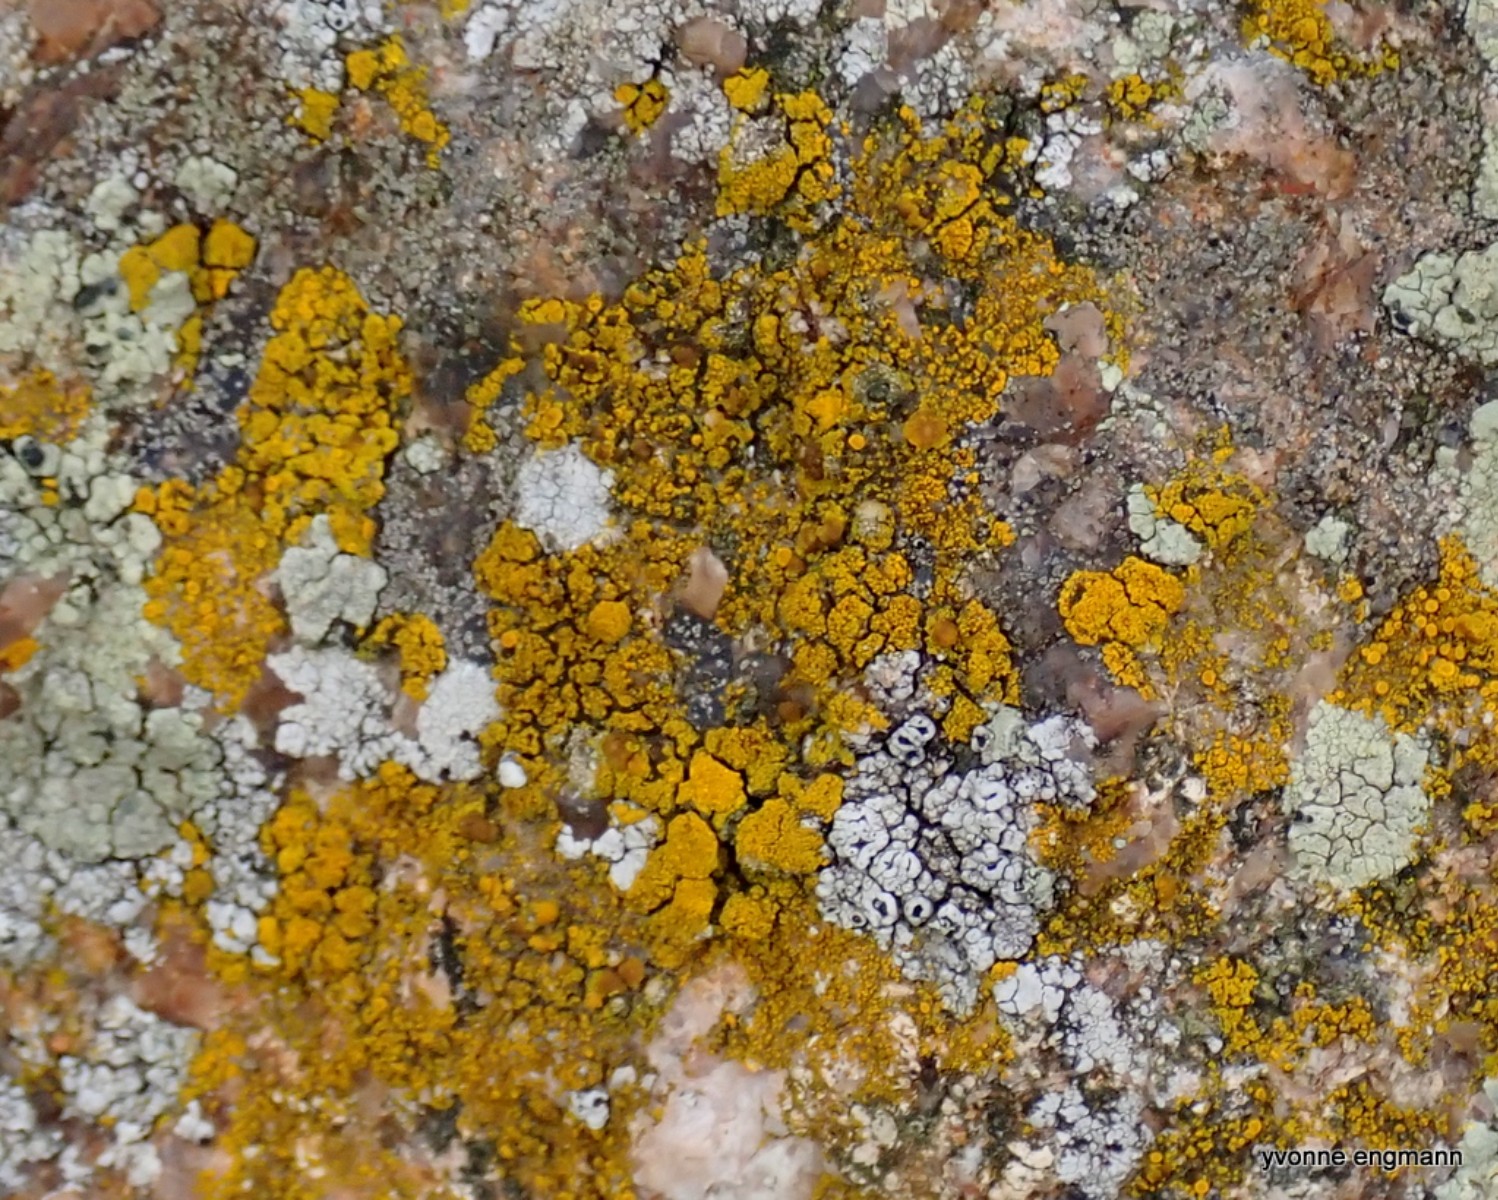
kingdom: Fungi
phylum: Ascomycota
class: Candelariomycetes
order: Candelariales
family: Candelariaceae
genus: Candelariella
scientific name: Candelariella vitellina
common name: almindelig æggeblommelav
